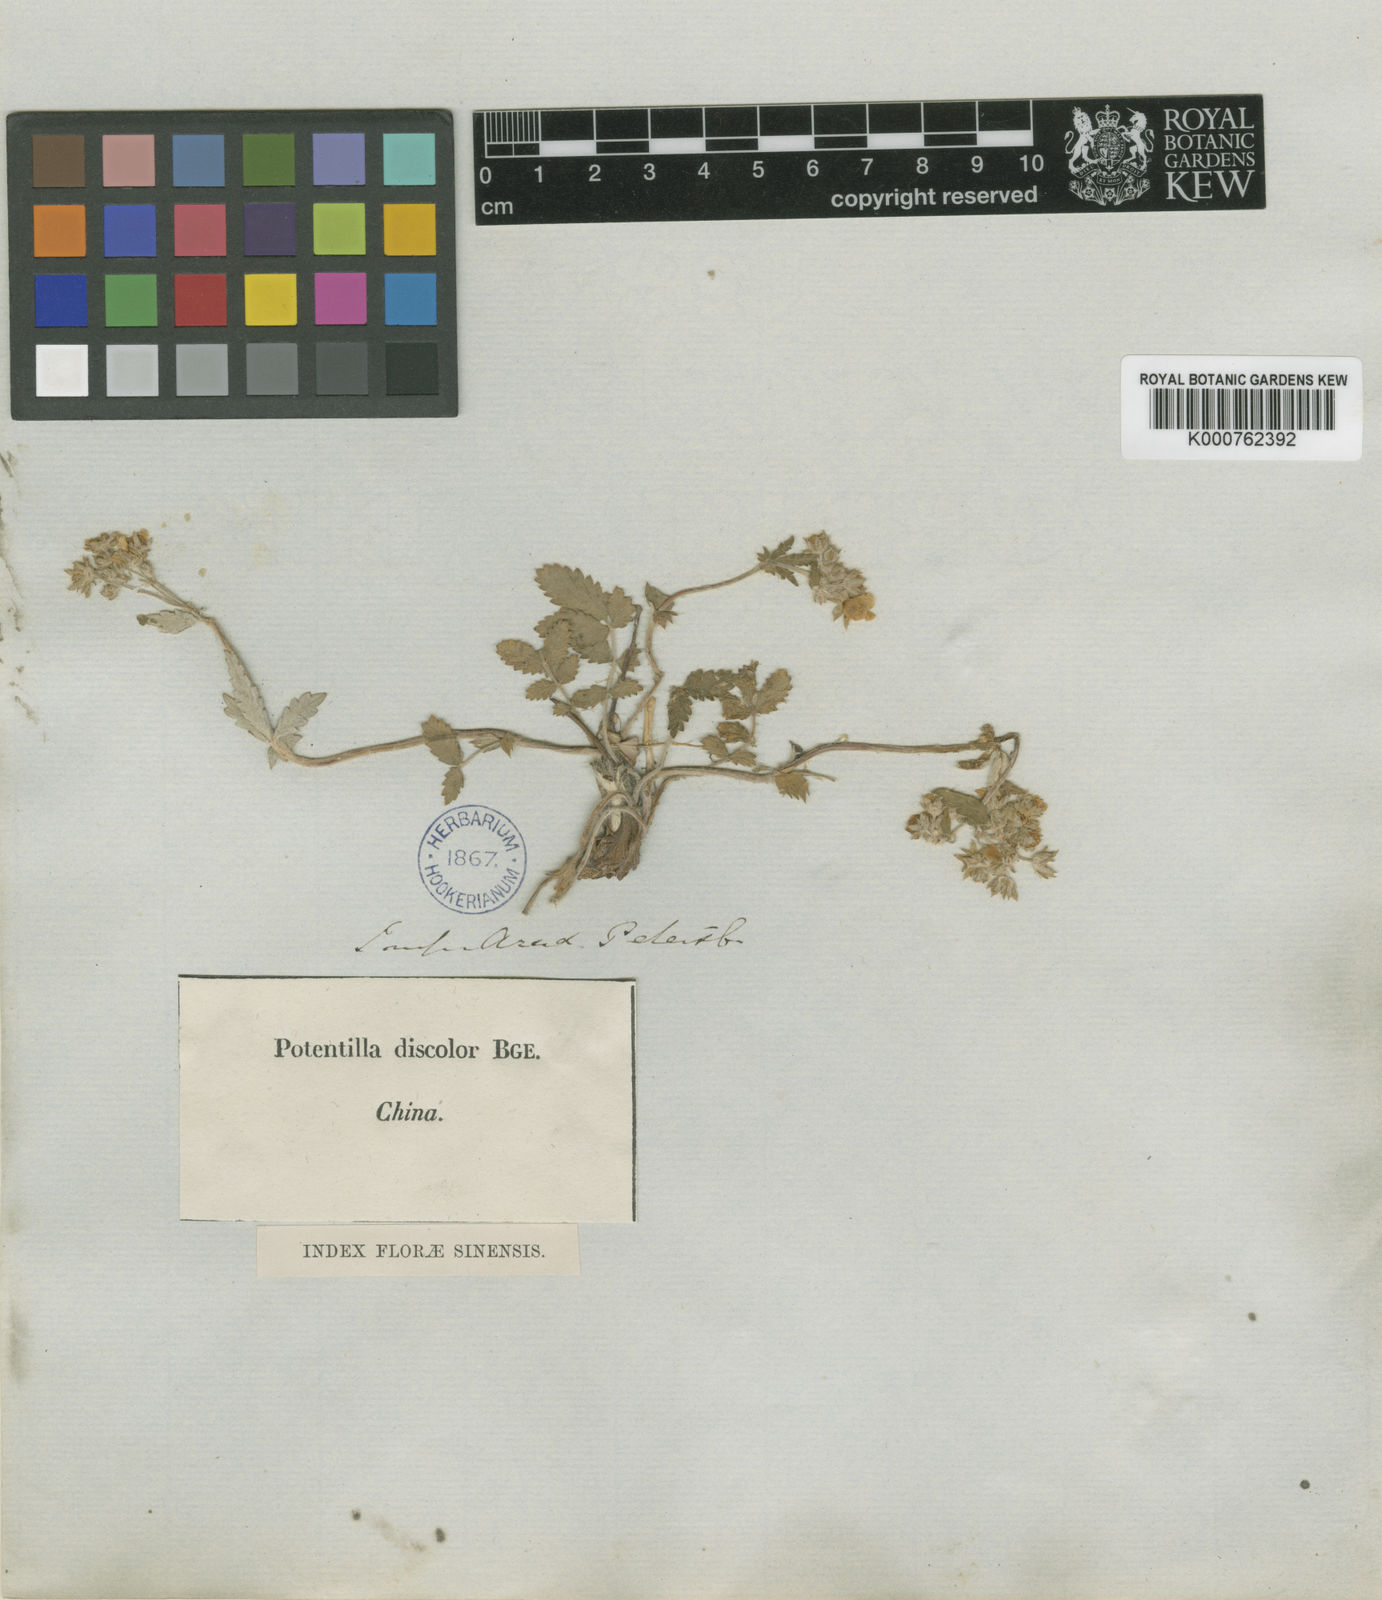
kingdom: Plantae
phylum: Tracheophyta
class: Magnoliopsida
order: Rosales
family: Rosaceae
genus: Potentilla
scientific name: Potentilla discolor
